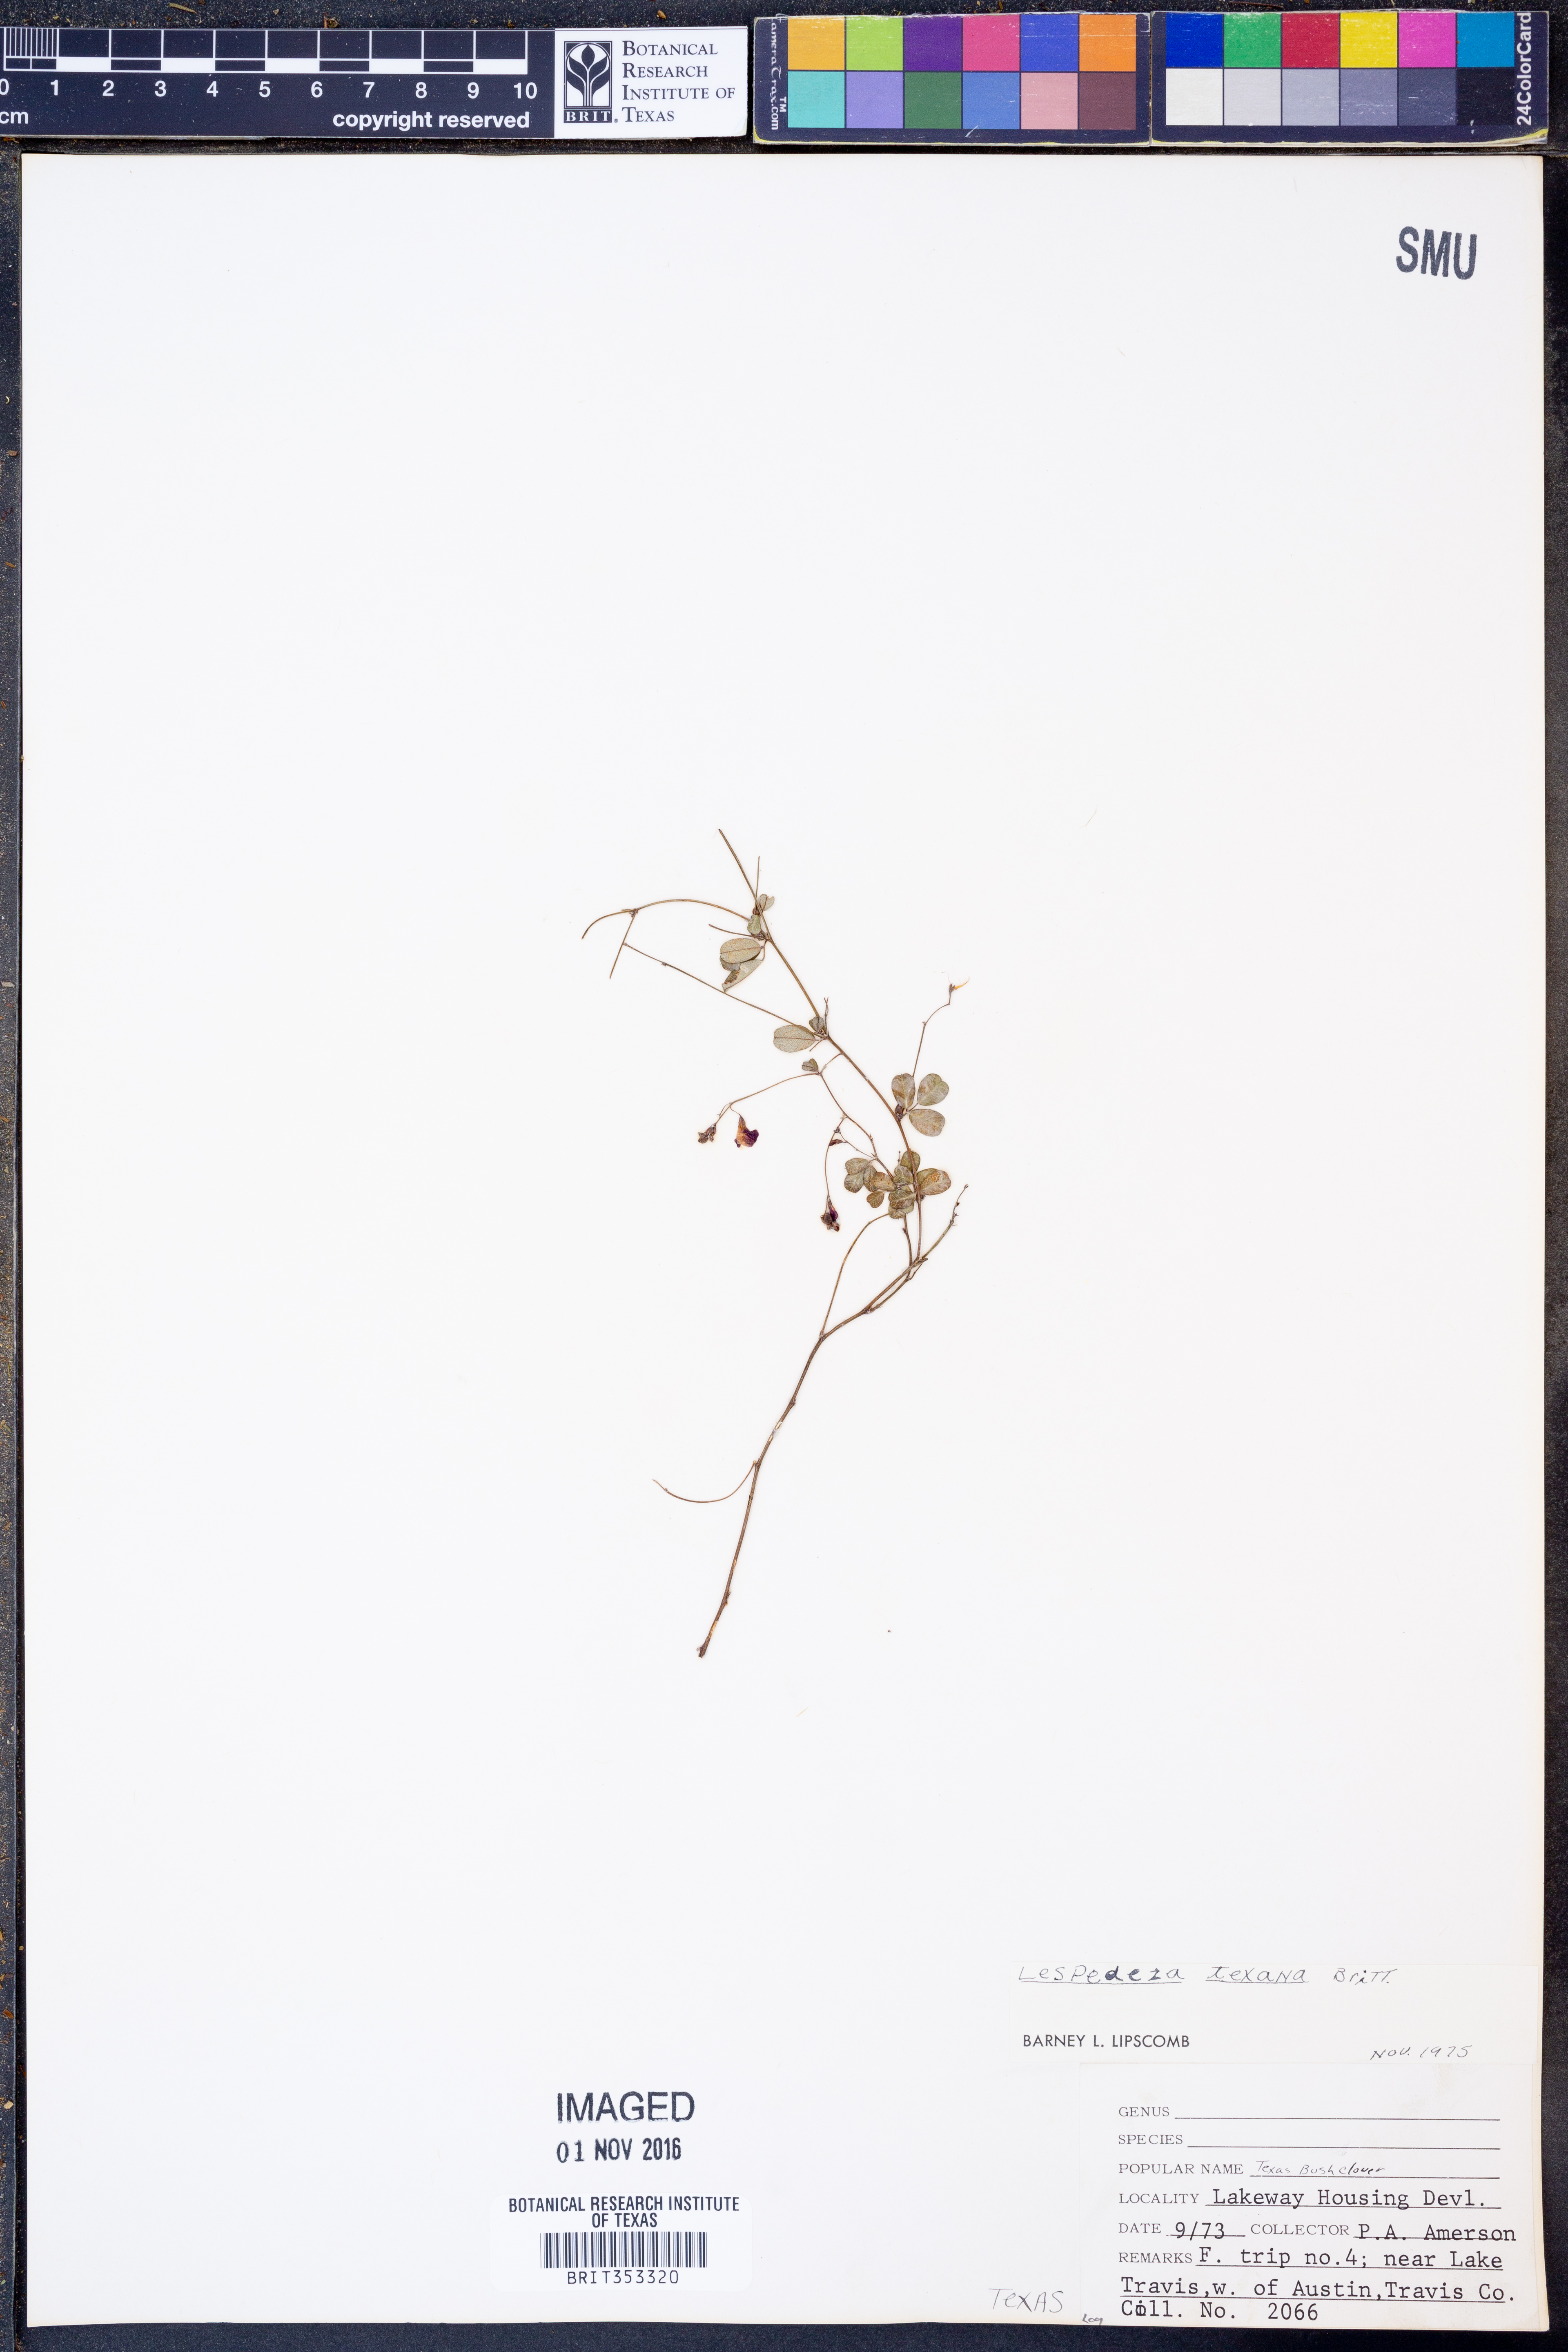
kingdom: Plantae
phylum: Tracheophyta
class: Magnoliopsida
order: Fabales
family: Fabaceae
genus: Lespedeza
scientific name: Lespedeza texana
